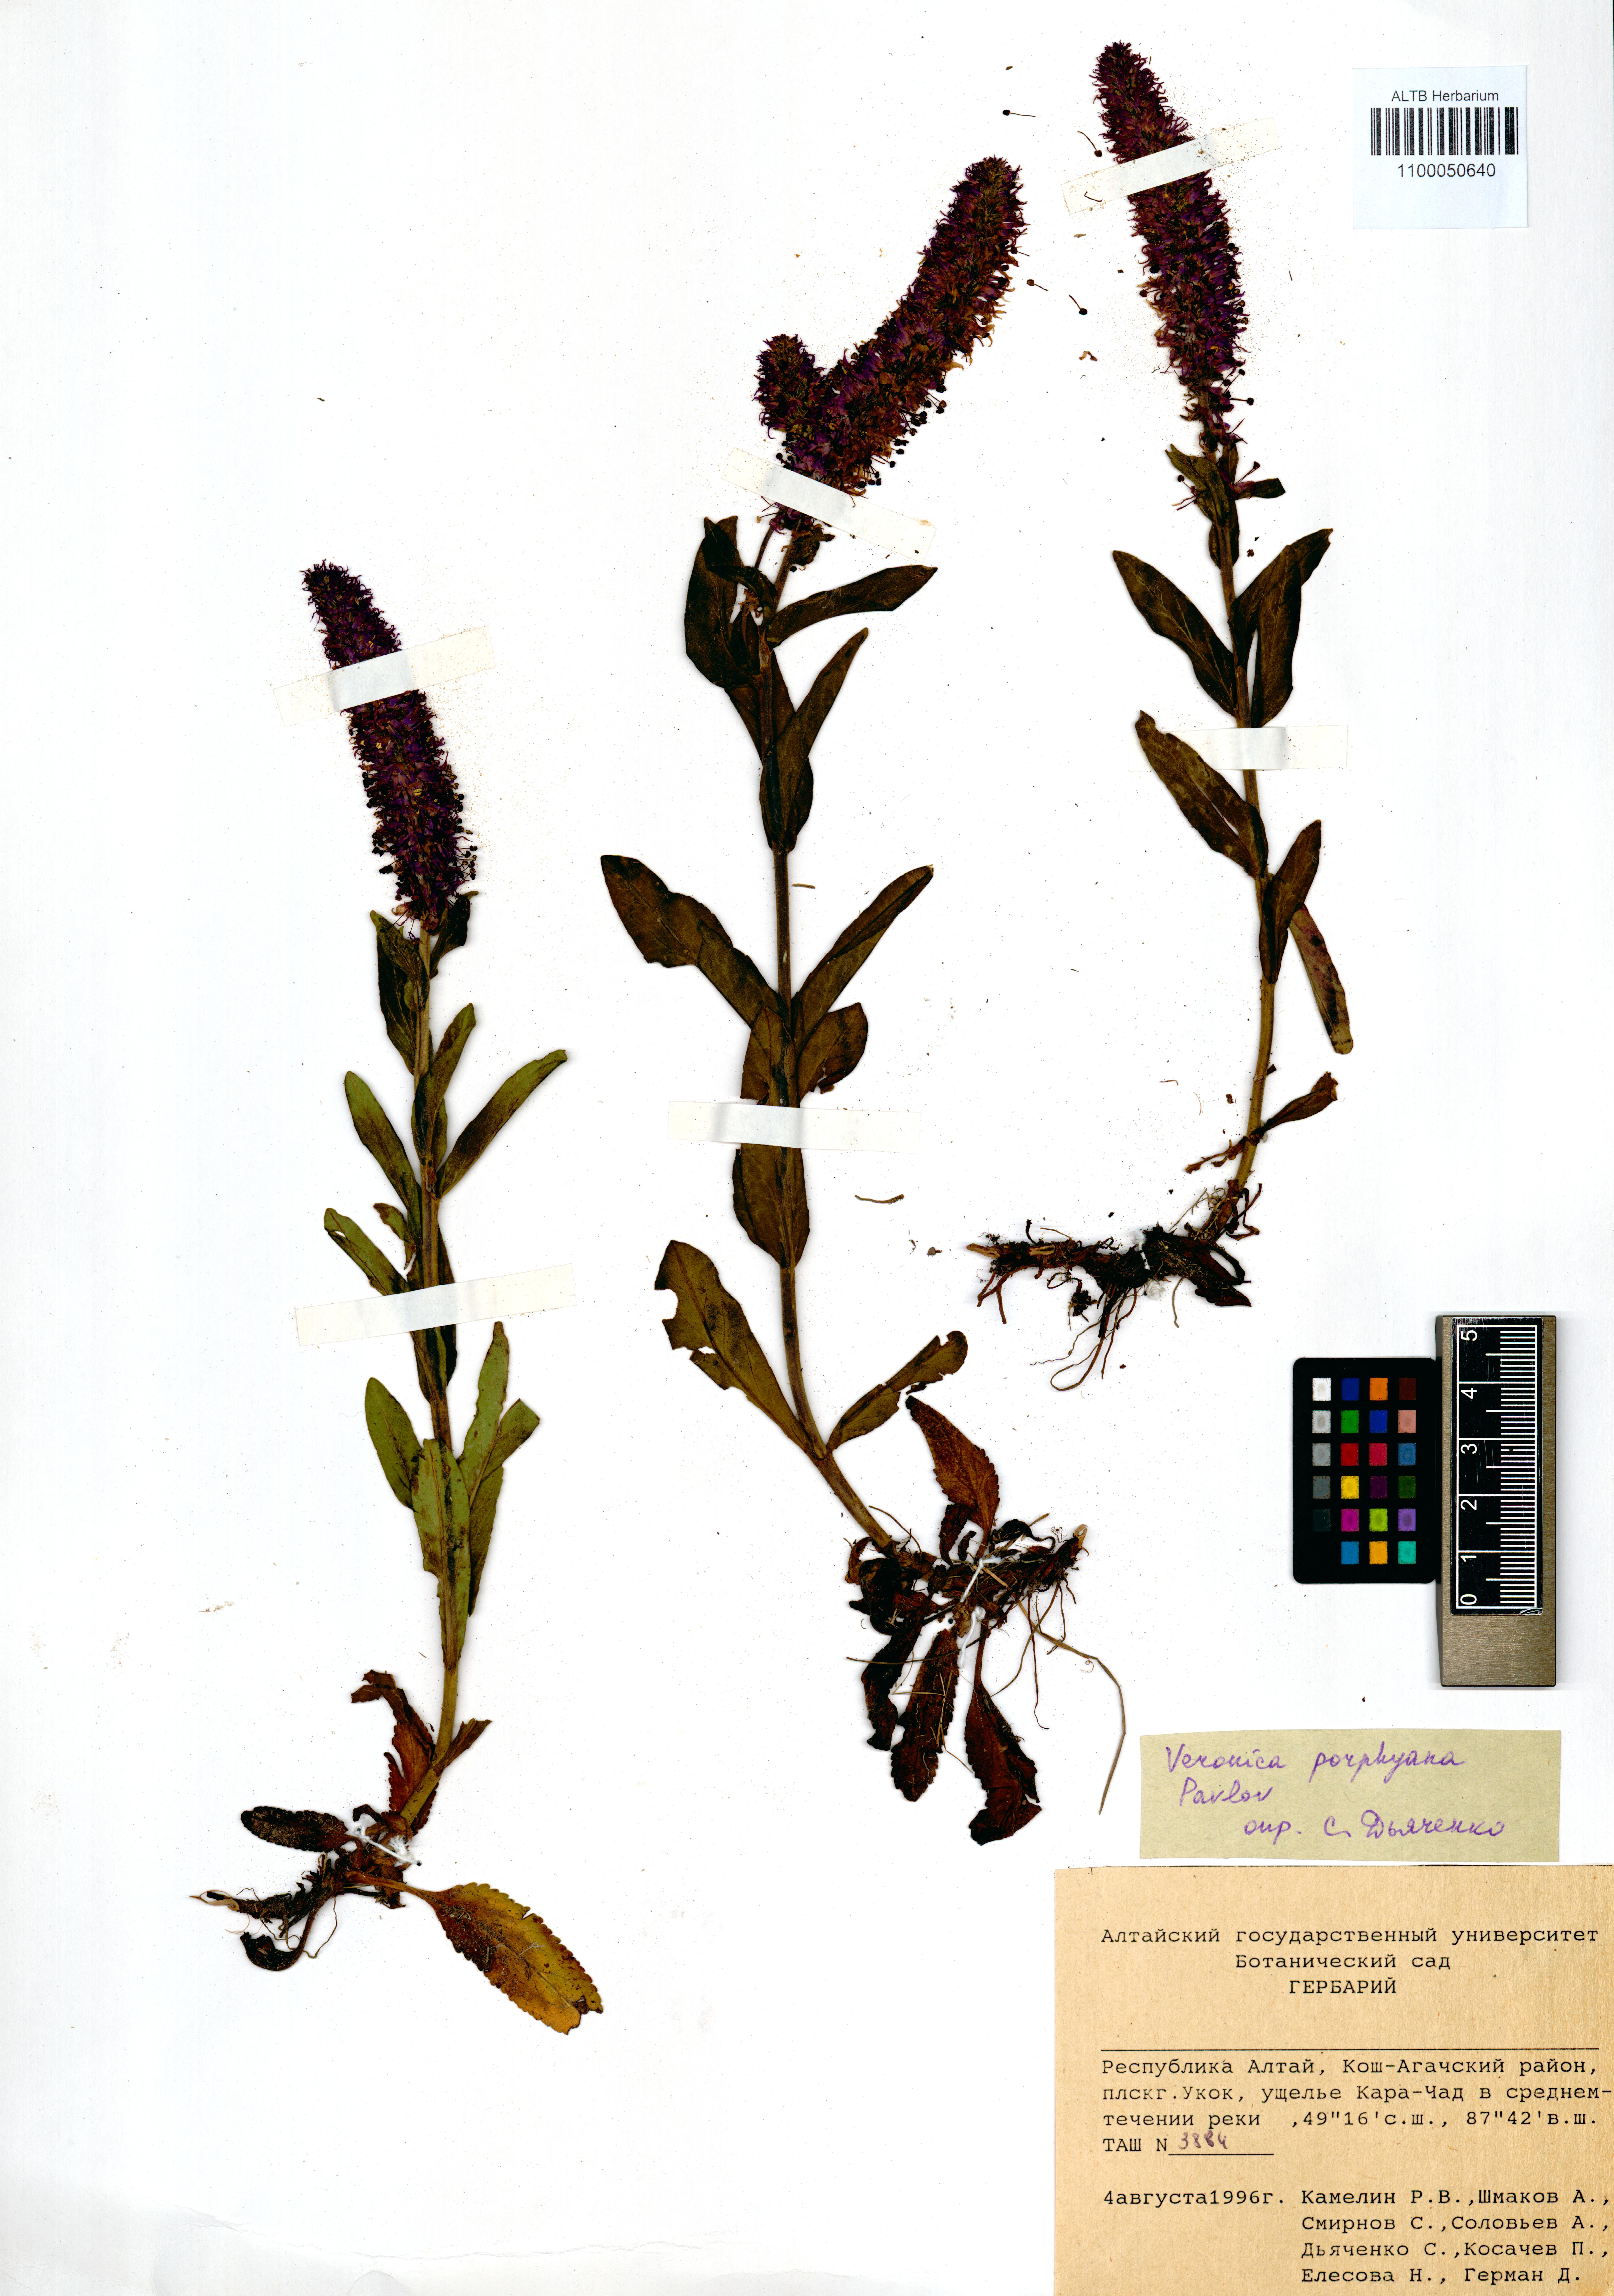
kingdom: Plantae
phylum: Tracheophyta
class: Magnoliopsida
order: Lamiales
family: Plantaginaceae
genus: Veronica
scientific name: Veronica porphyriana
